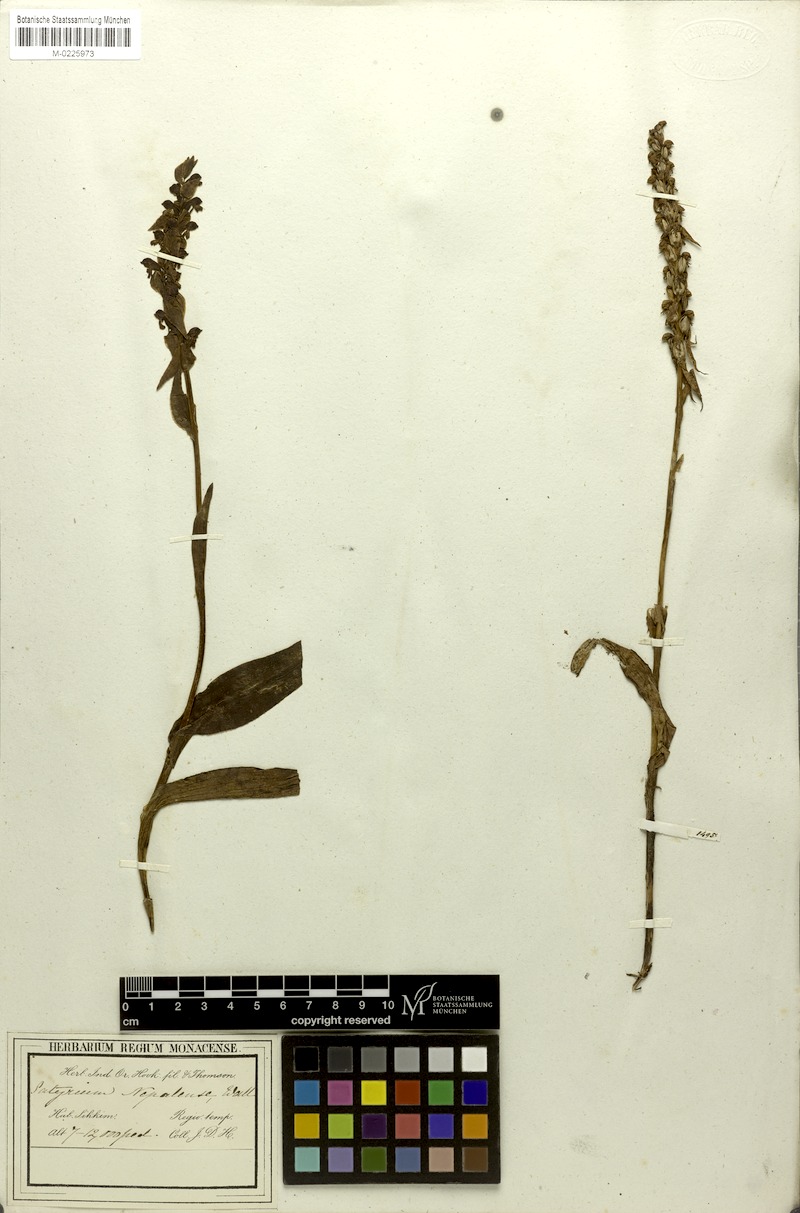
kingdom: Plantae
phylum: Tracheophyta
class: Liliopsida
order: Asparagales
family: Orchidaceae
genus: Satyrium
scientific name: Satyrium nepalense
